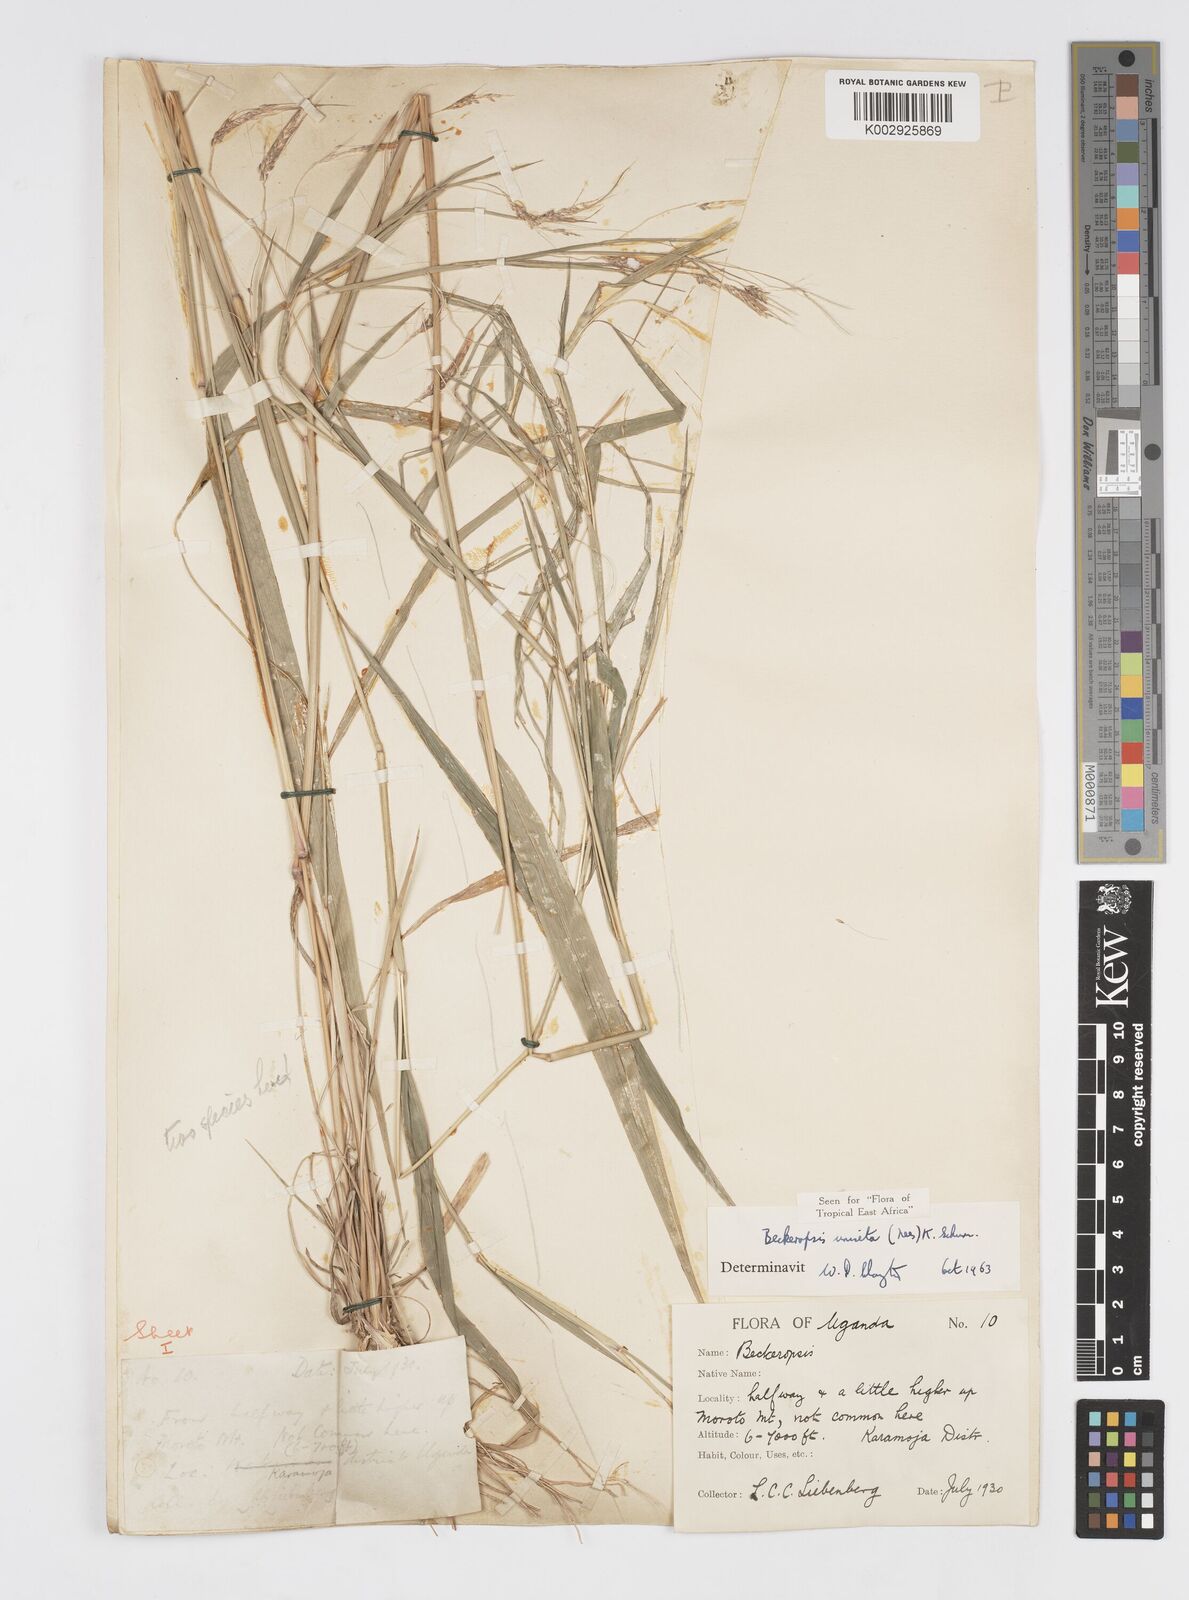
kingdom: Plantae
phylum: Tracheophyta
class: Liliopsida
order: Poales
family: Poaceae
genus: Cenchrus
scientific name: Cenchrus unisetus
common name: Natal grass
